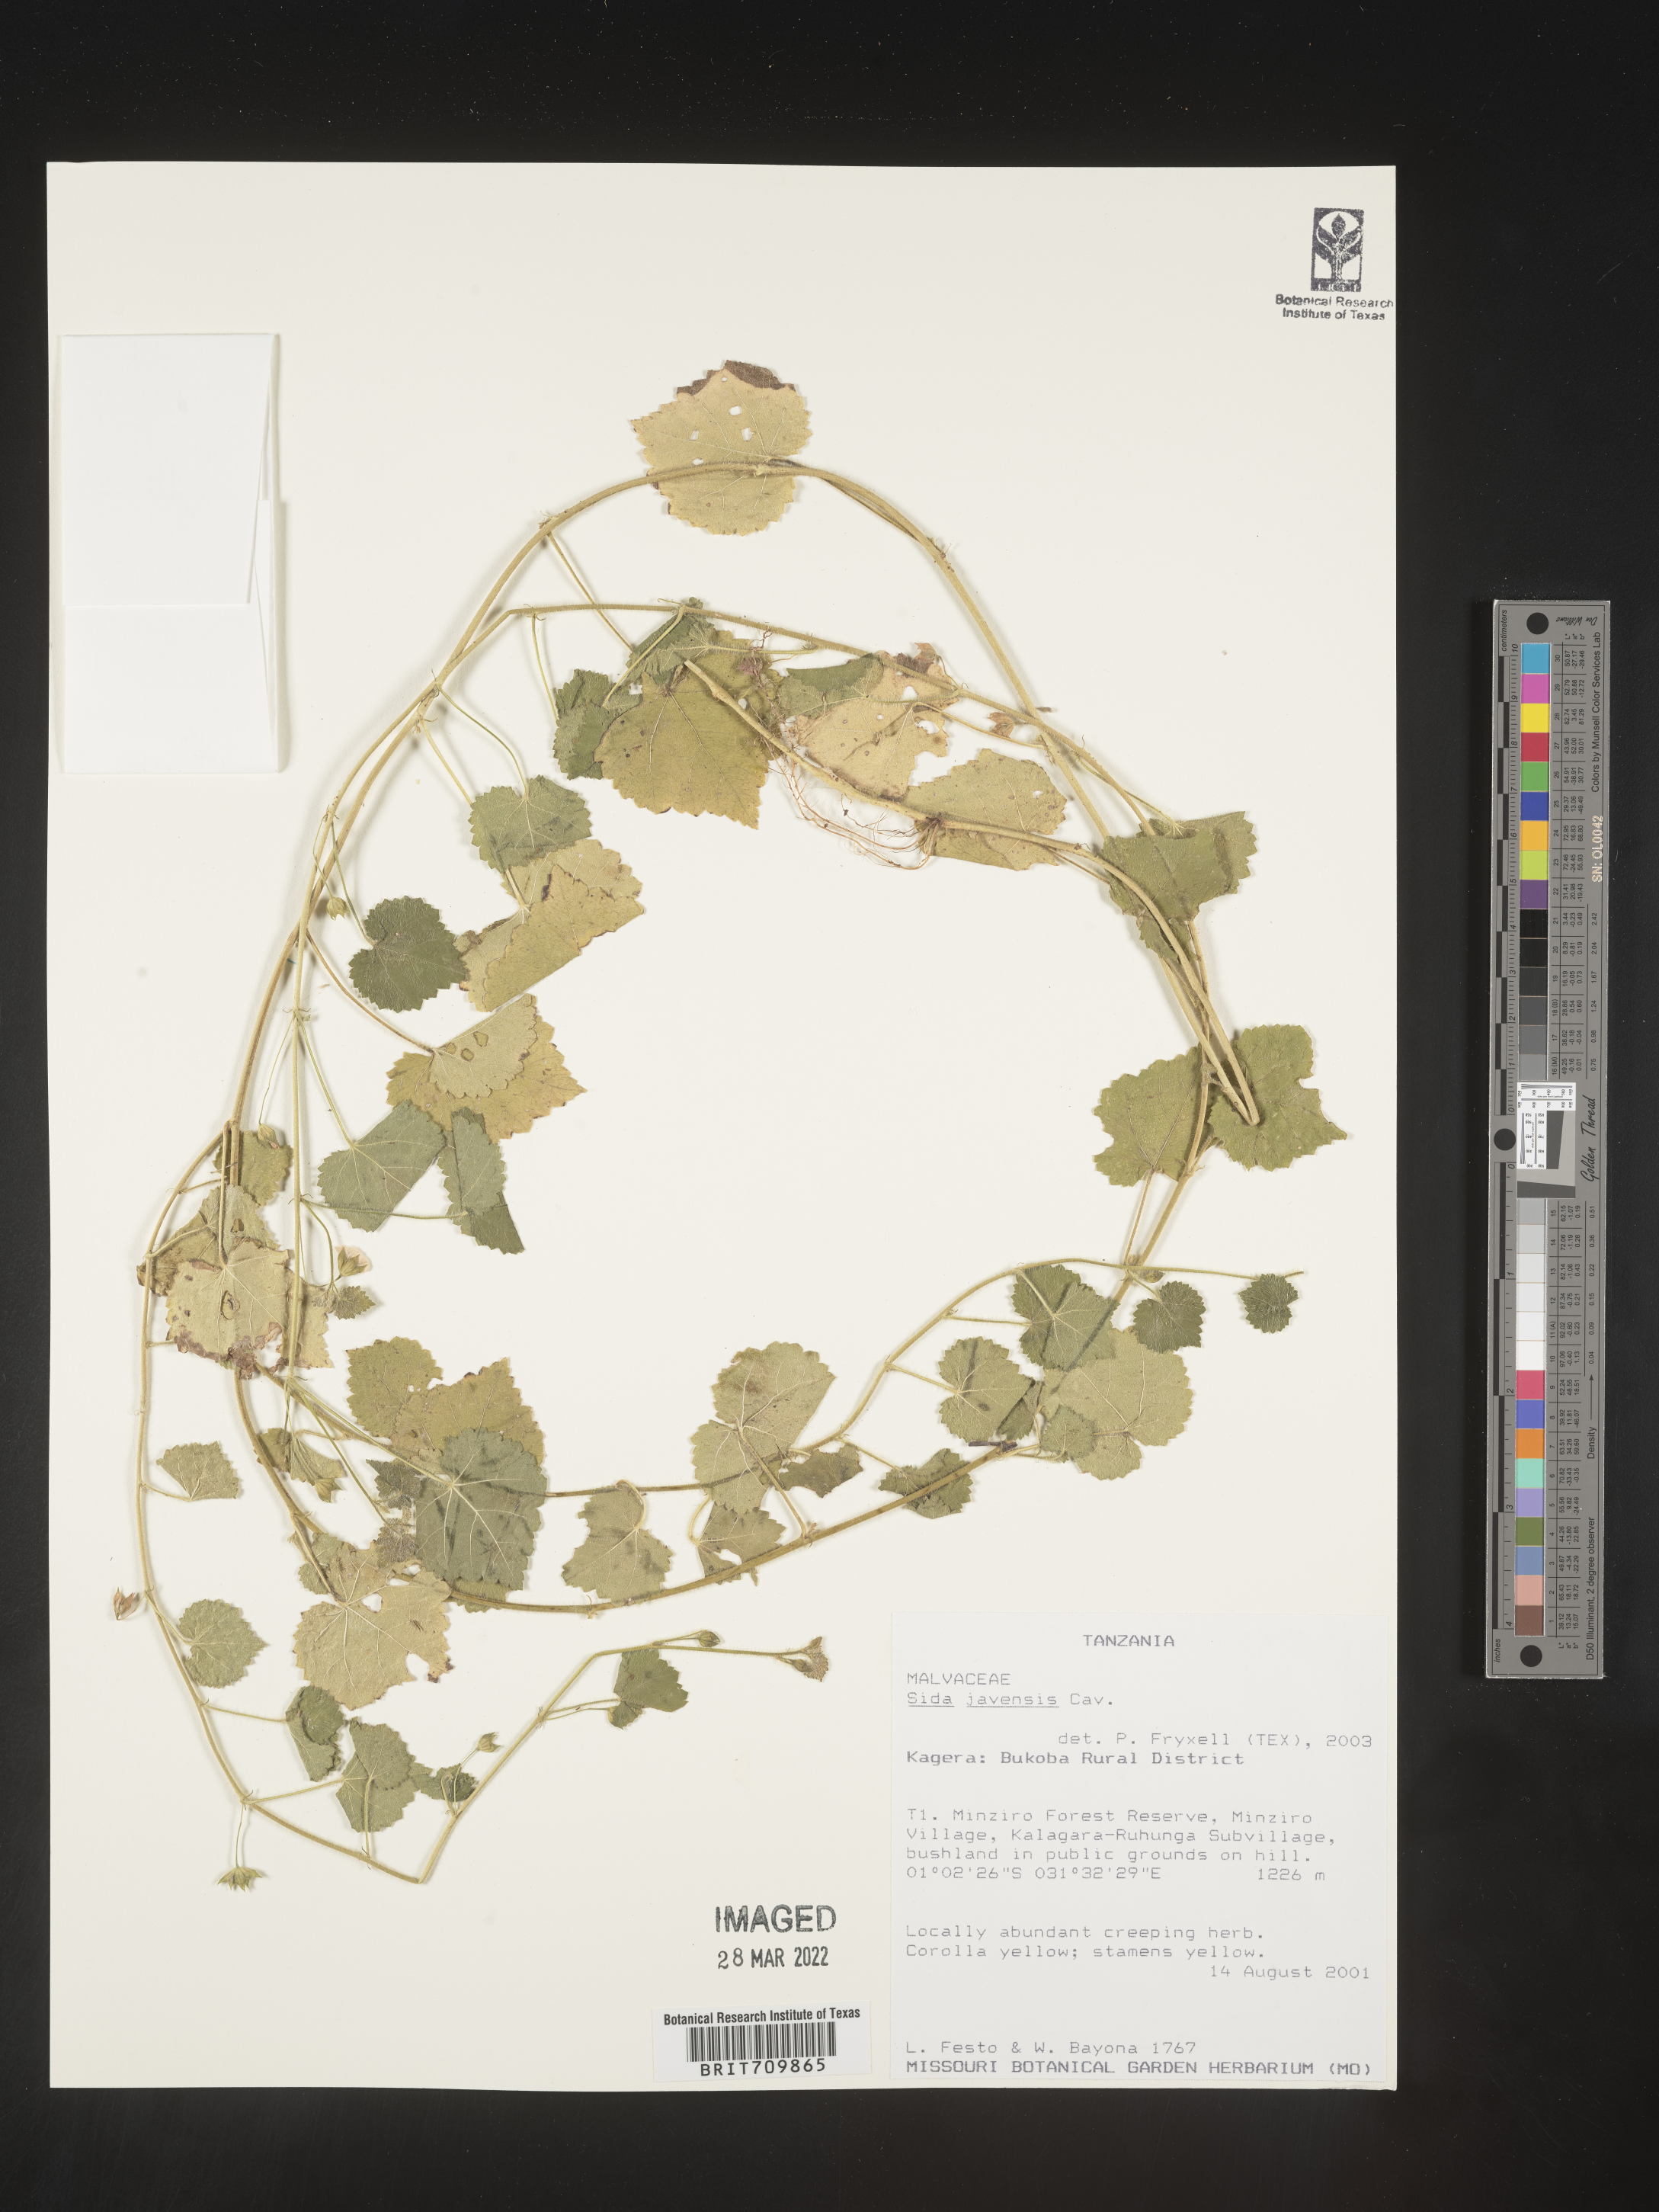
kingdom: Plantae
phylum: Tracheophyta
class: Magnoliopsida
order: Malvales
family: Malvaceae
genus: Sida
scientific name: Sida
